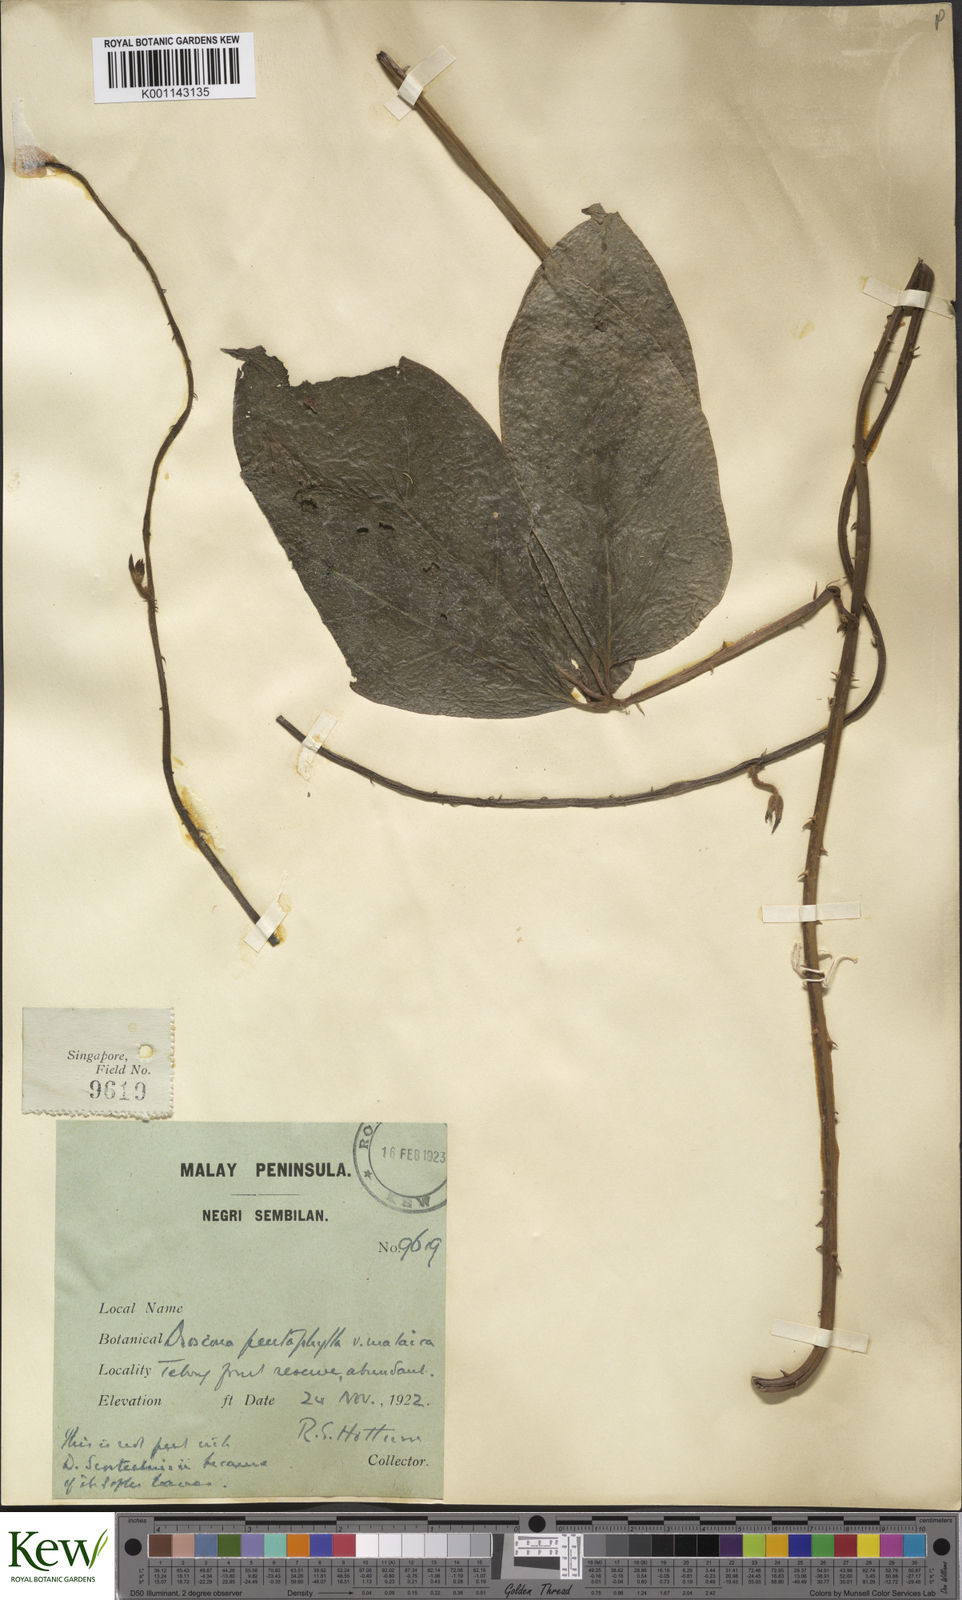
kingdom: Plantae
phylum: Tracheophyta
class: Liliopsida
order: Dioscoreales
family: Dioscoreaceae
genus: Dioscorea
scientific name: Dioscorea pentaphylla
